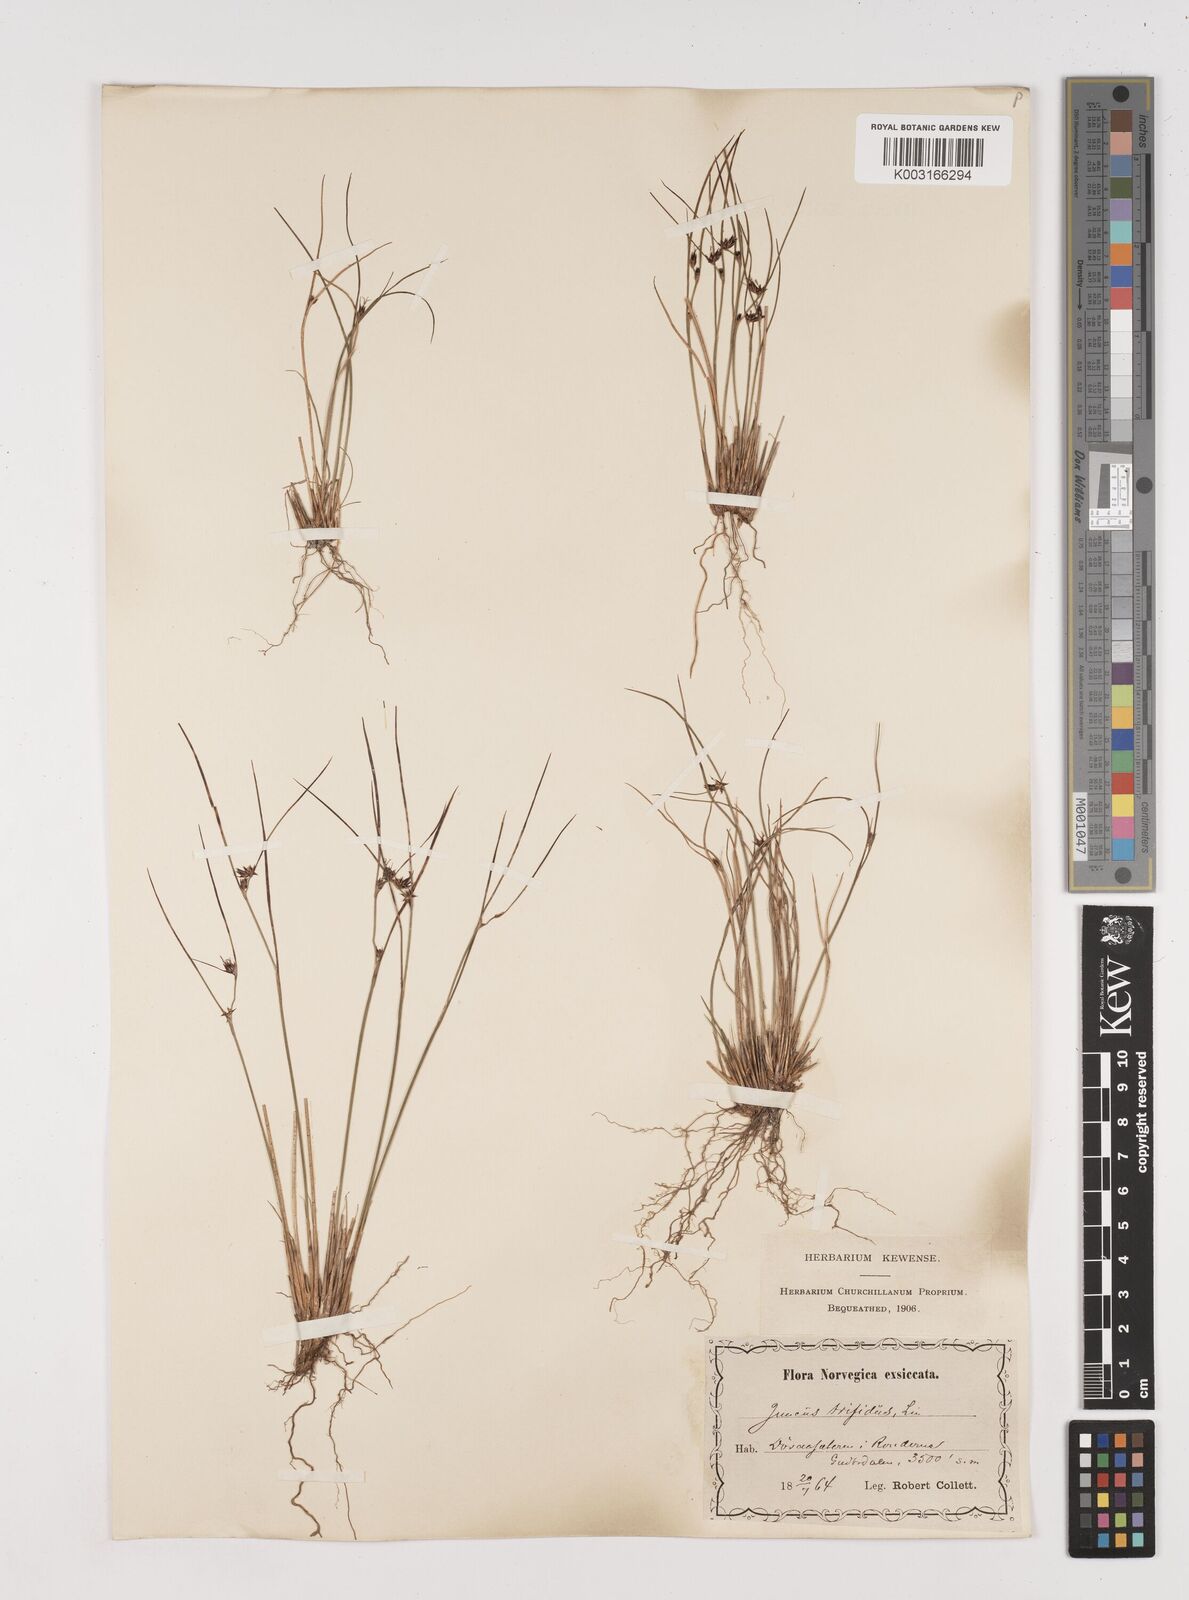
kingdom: Plantae
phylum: Tracheophyta
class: Liliopsida
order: Poales
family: Juncaceae
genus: Oreojuncus
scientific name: Oreojuncus trifidus
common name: Highland rush
